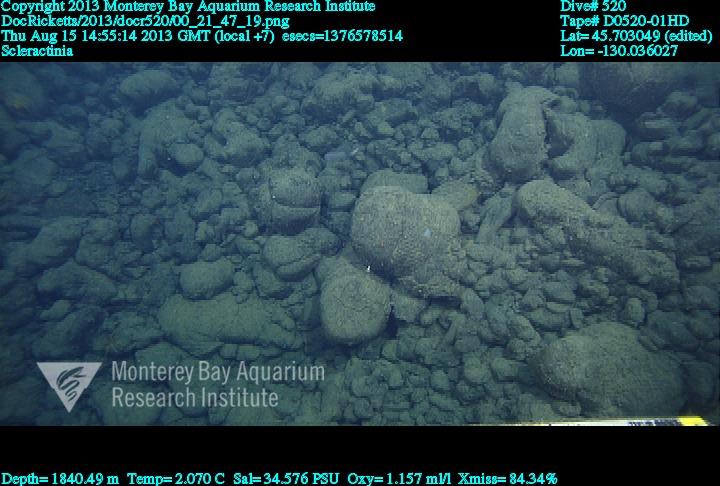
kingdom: Animalia
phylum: Cnidaria
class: Anthozoa
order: Scleractinia
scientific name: Scleractinia
